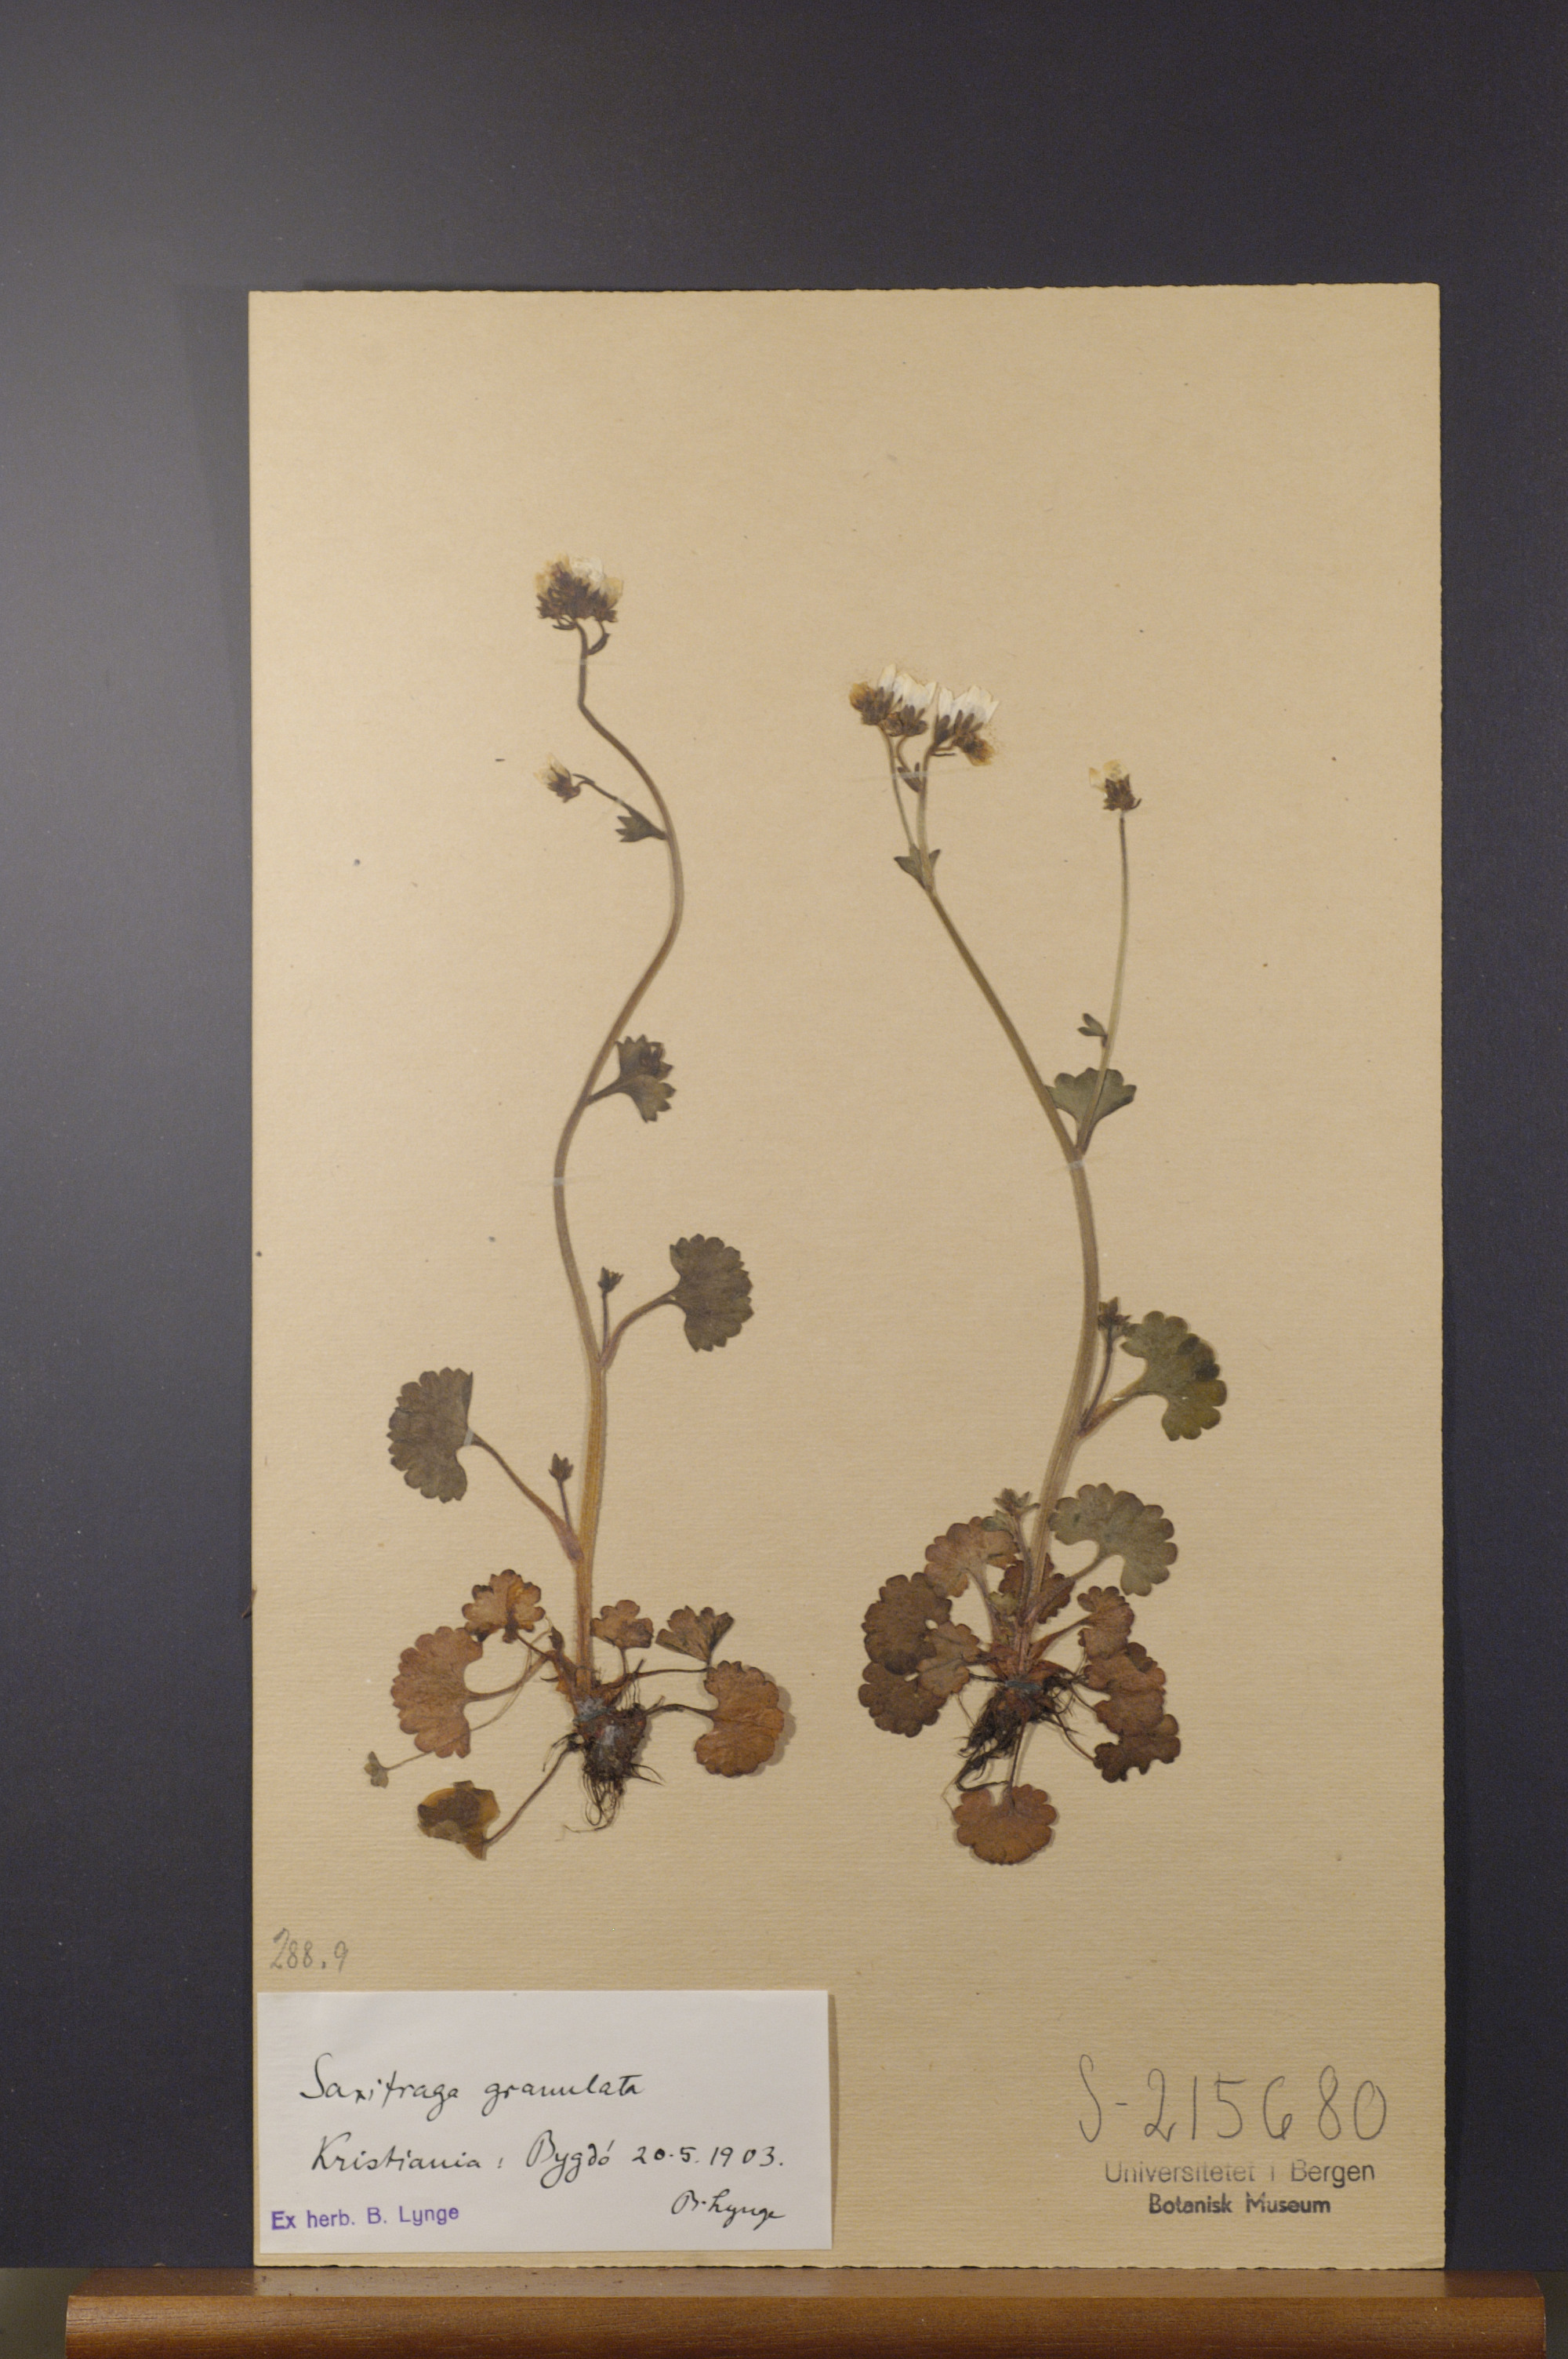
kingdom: Plantae
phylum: Tracheophyta
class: Magnoliopsida
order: Saxifragales
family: Saxifragaceae
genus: Saxifraga
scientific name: Saxifraga granulata
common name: Meadow saxifrage
